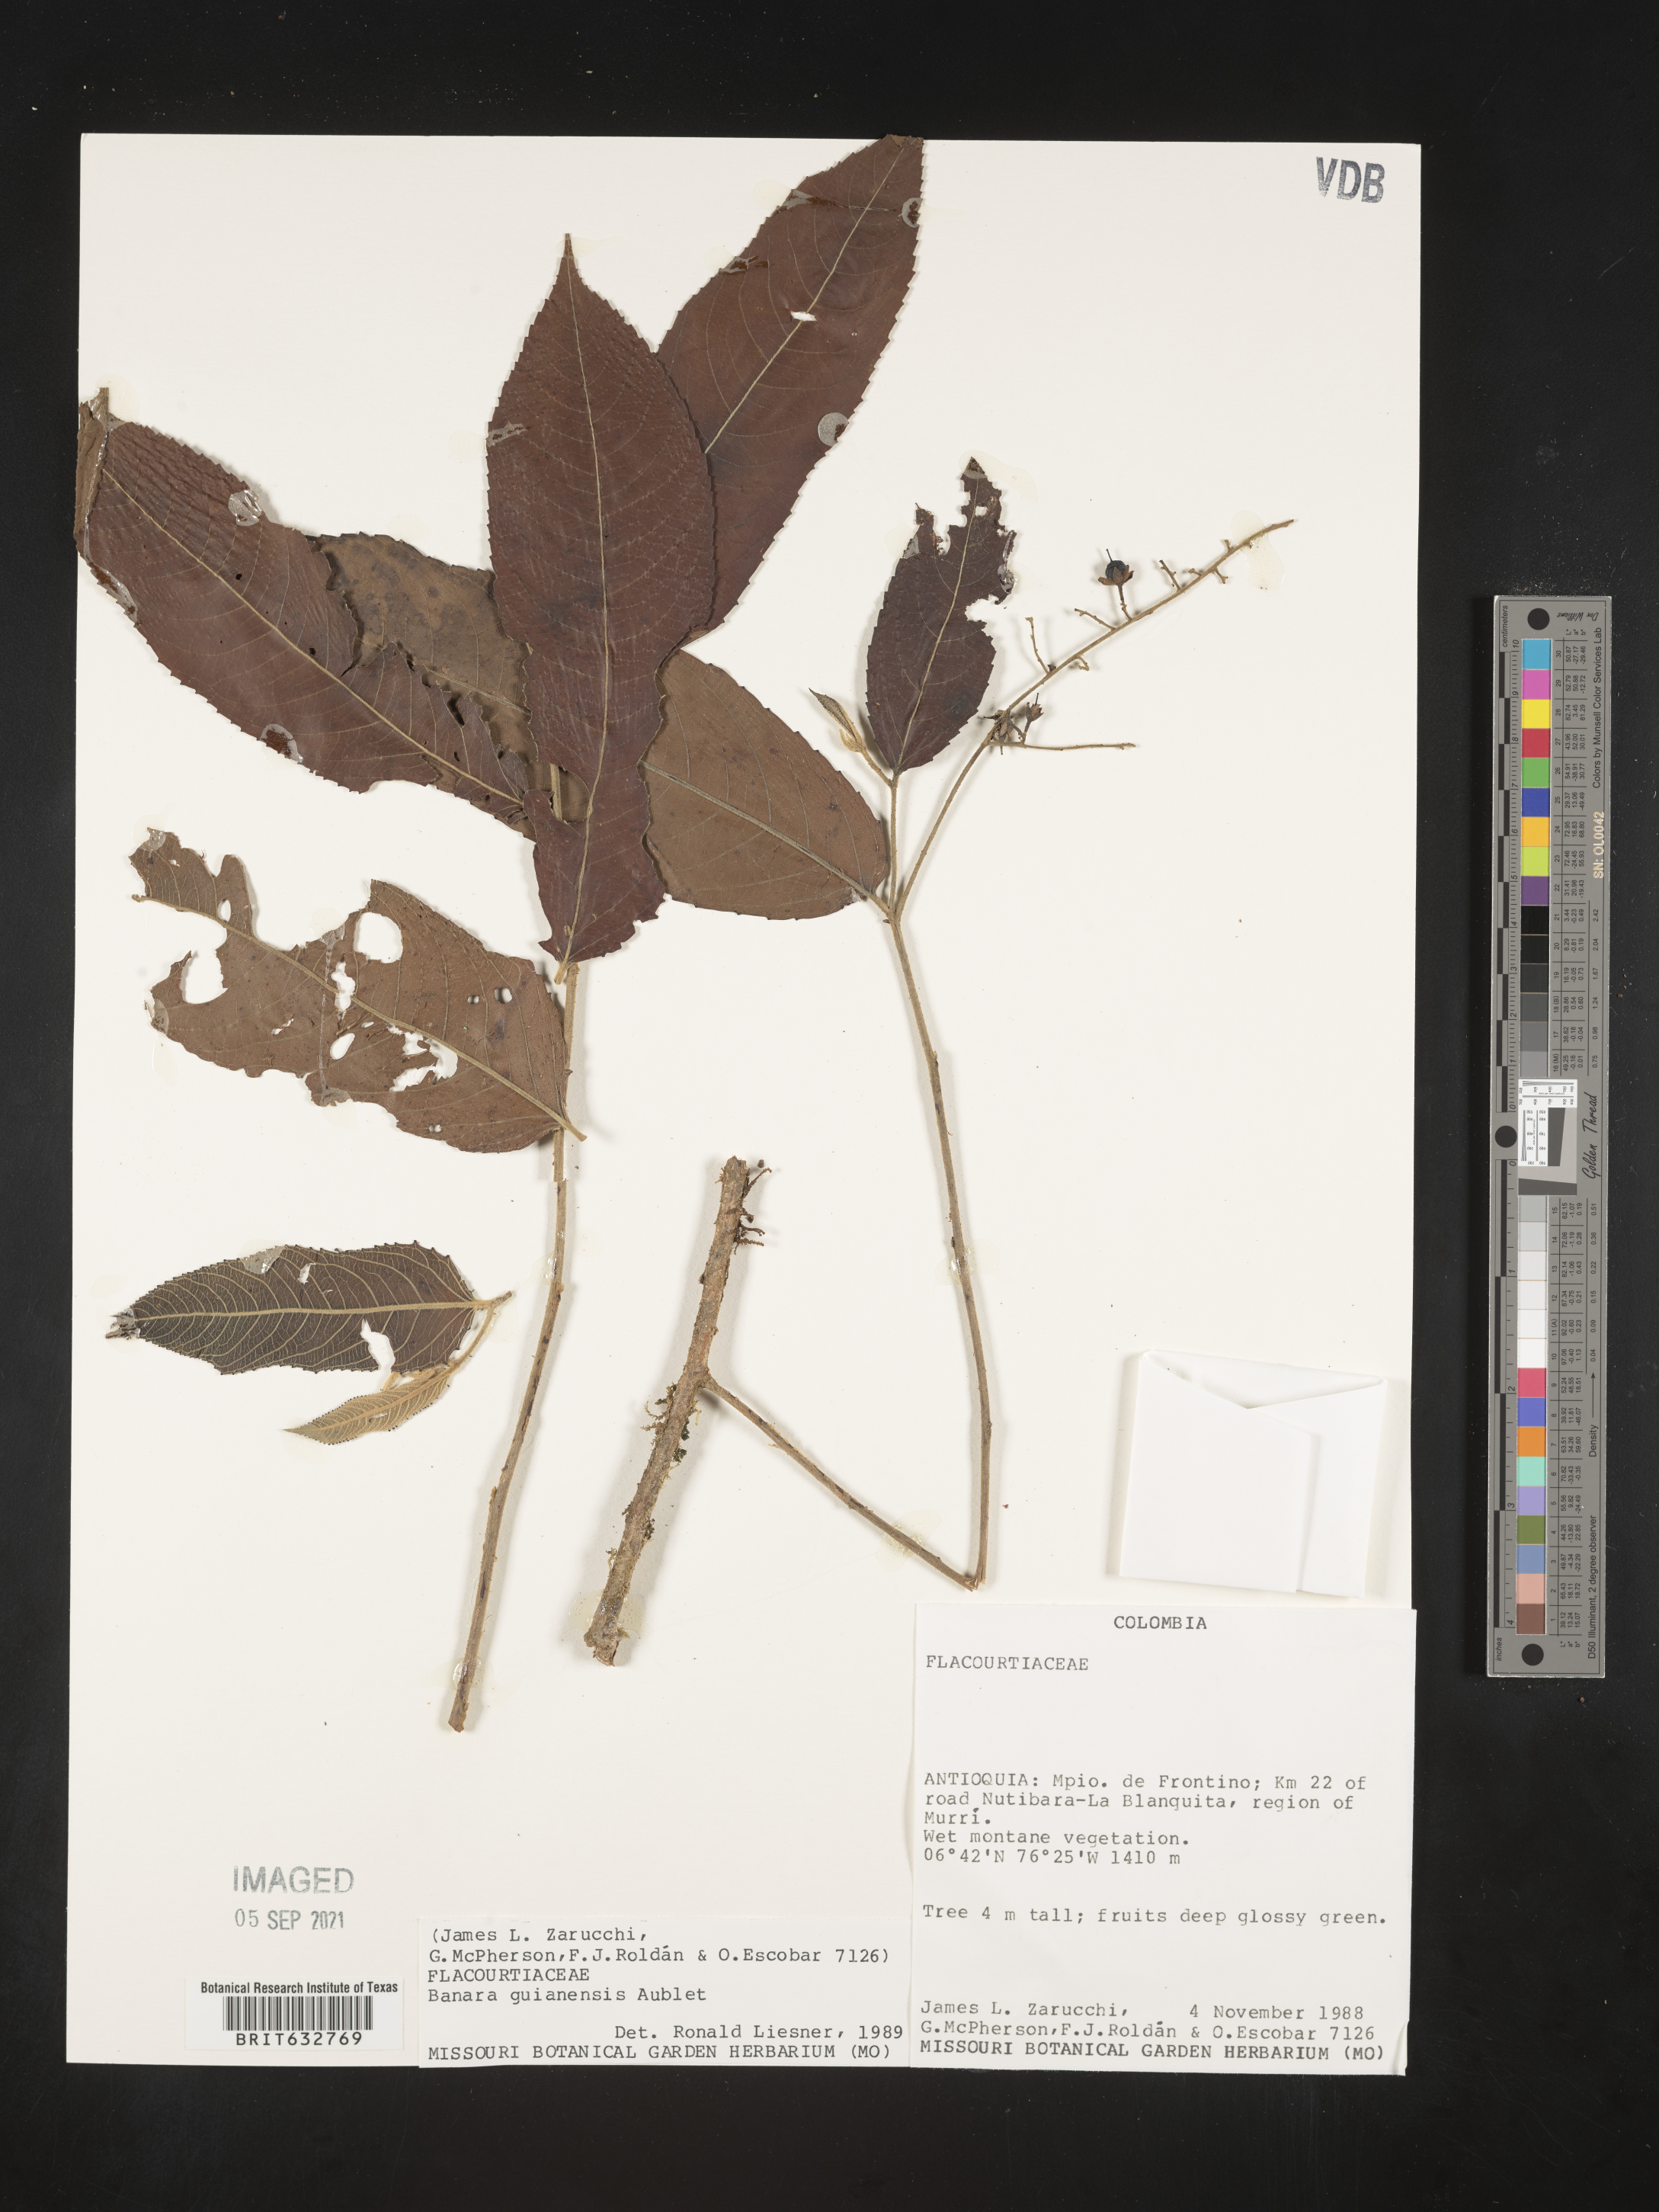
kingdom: Plantae
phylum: Tracheophyta
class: Magnoliopsida
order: Malpighiales
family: Salicaceae
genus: Banara
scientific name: Banara
